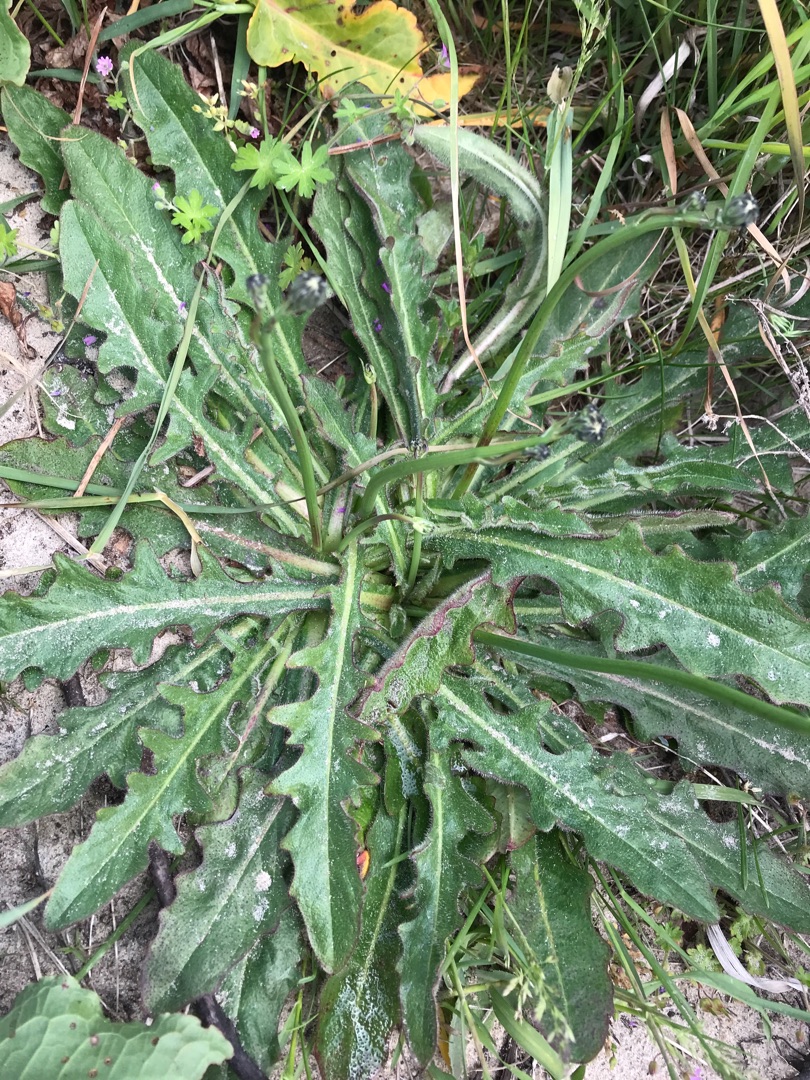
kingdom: Plantae
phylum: Tracheophyta
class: Magnoliopsida
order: Asterales
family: Asteraceae
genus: Hypochaeris
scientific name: Hypochaeris radicata
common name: Almindelig kongepen
